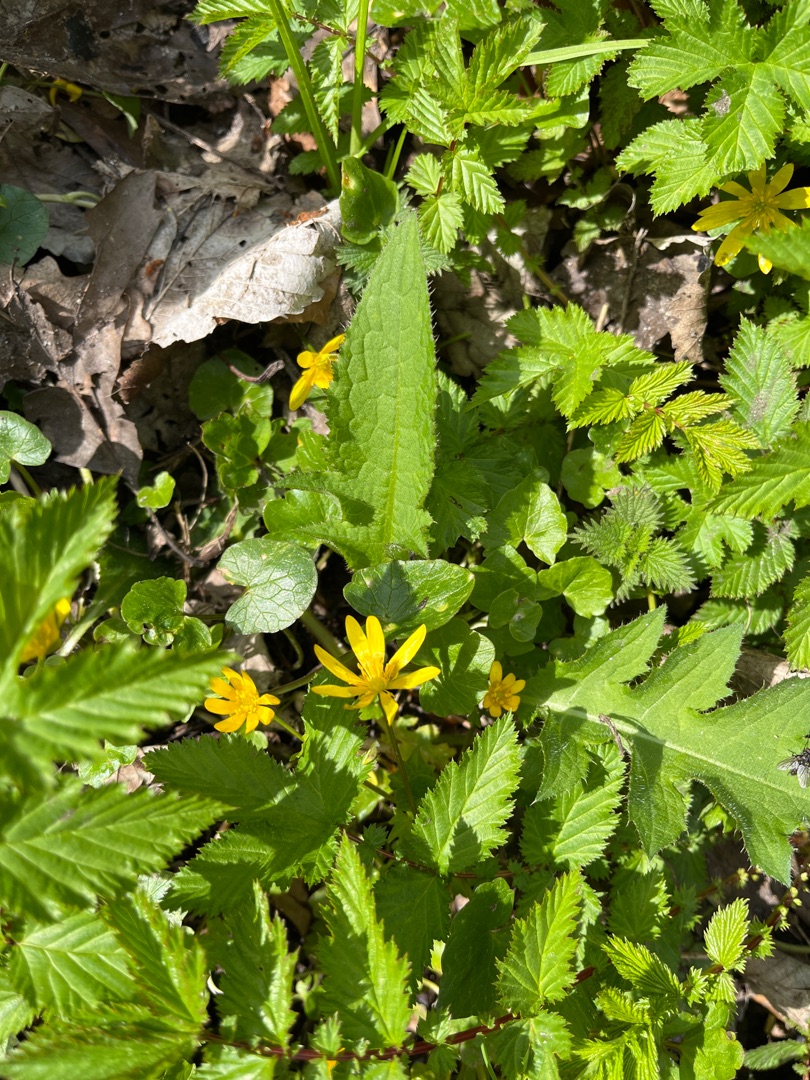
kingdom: Plantae
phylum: Tracheophyta
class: Magnoliopsida
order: Ranunculales
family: Ranunculaceae
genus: Ficaria
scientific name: Ficaria verna
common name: Vorterod
